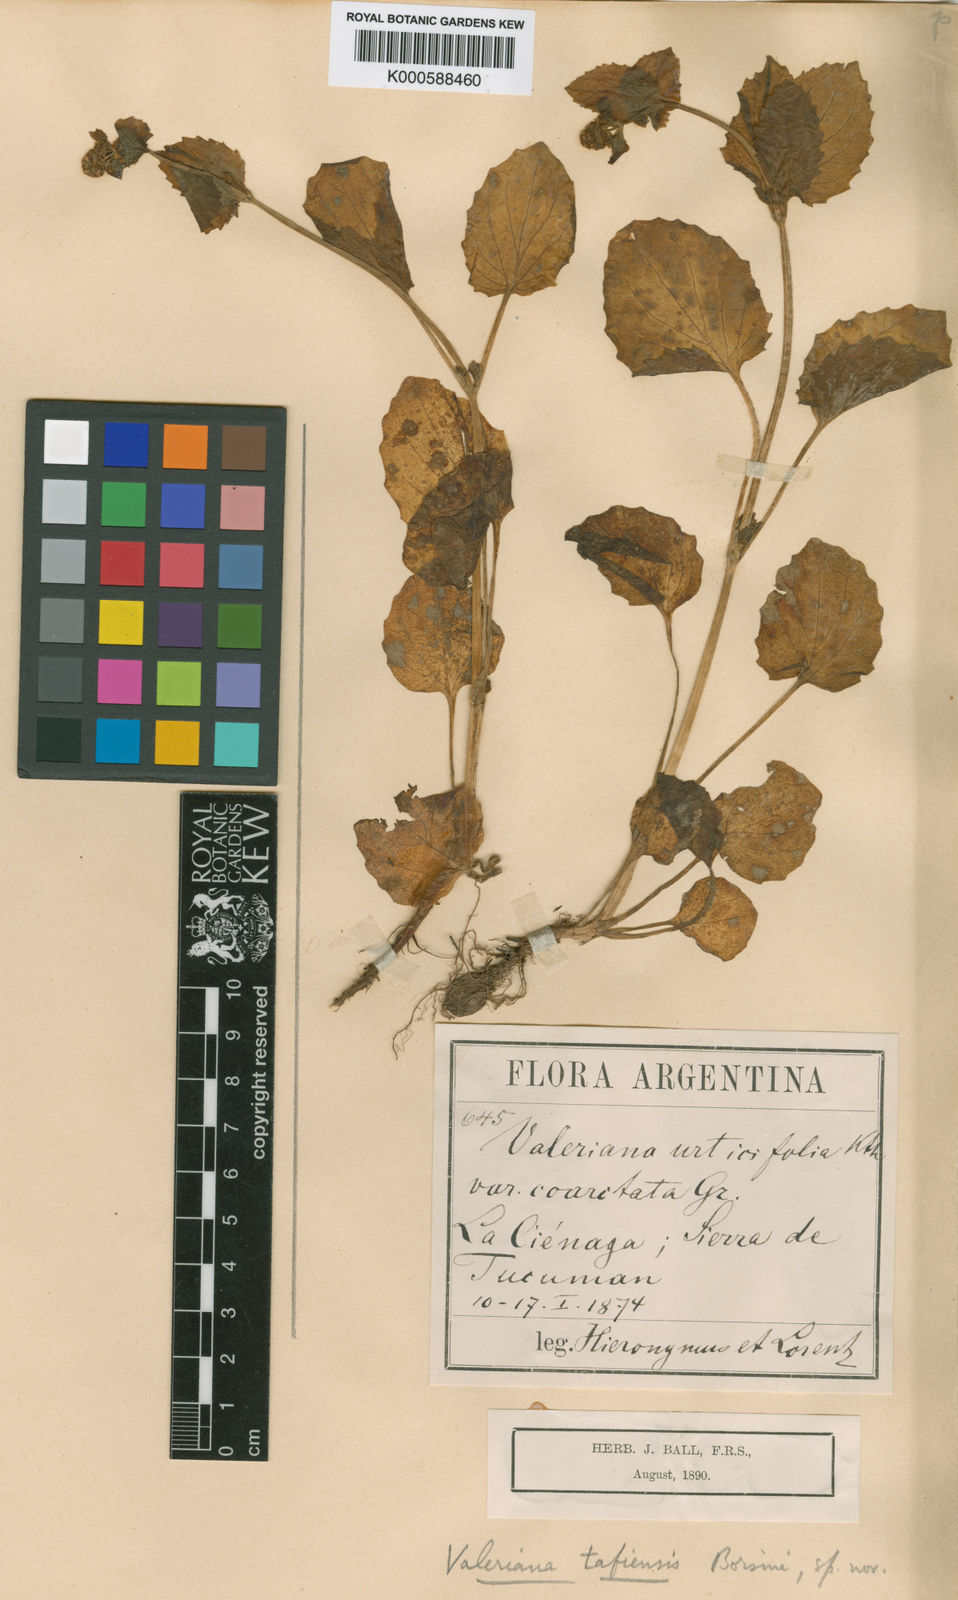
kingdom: Plantae
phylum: Tracheophyta
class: Magnoliopsida
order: Dipsacales
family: Caprifoliaceae
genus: Valeriana
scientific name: Valeriana tafiensis
